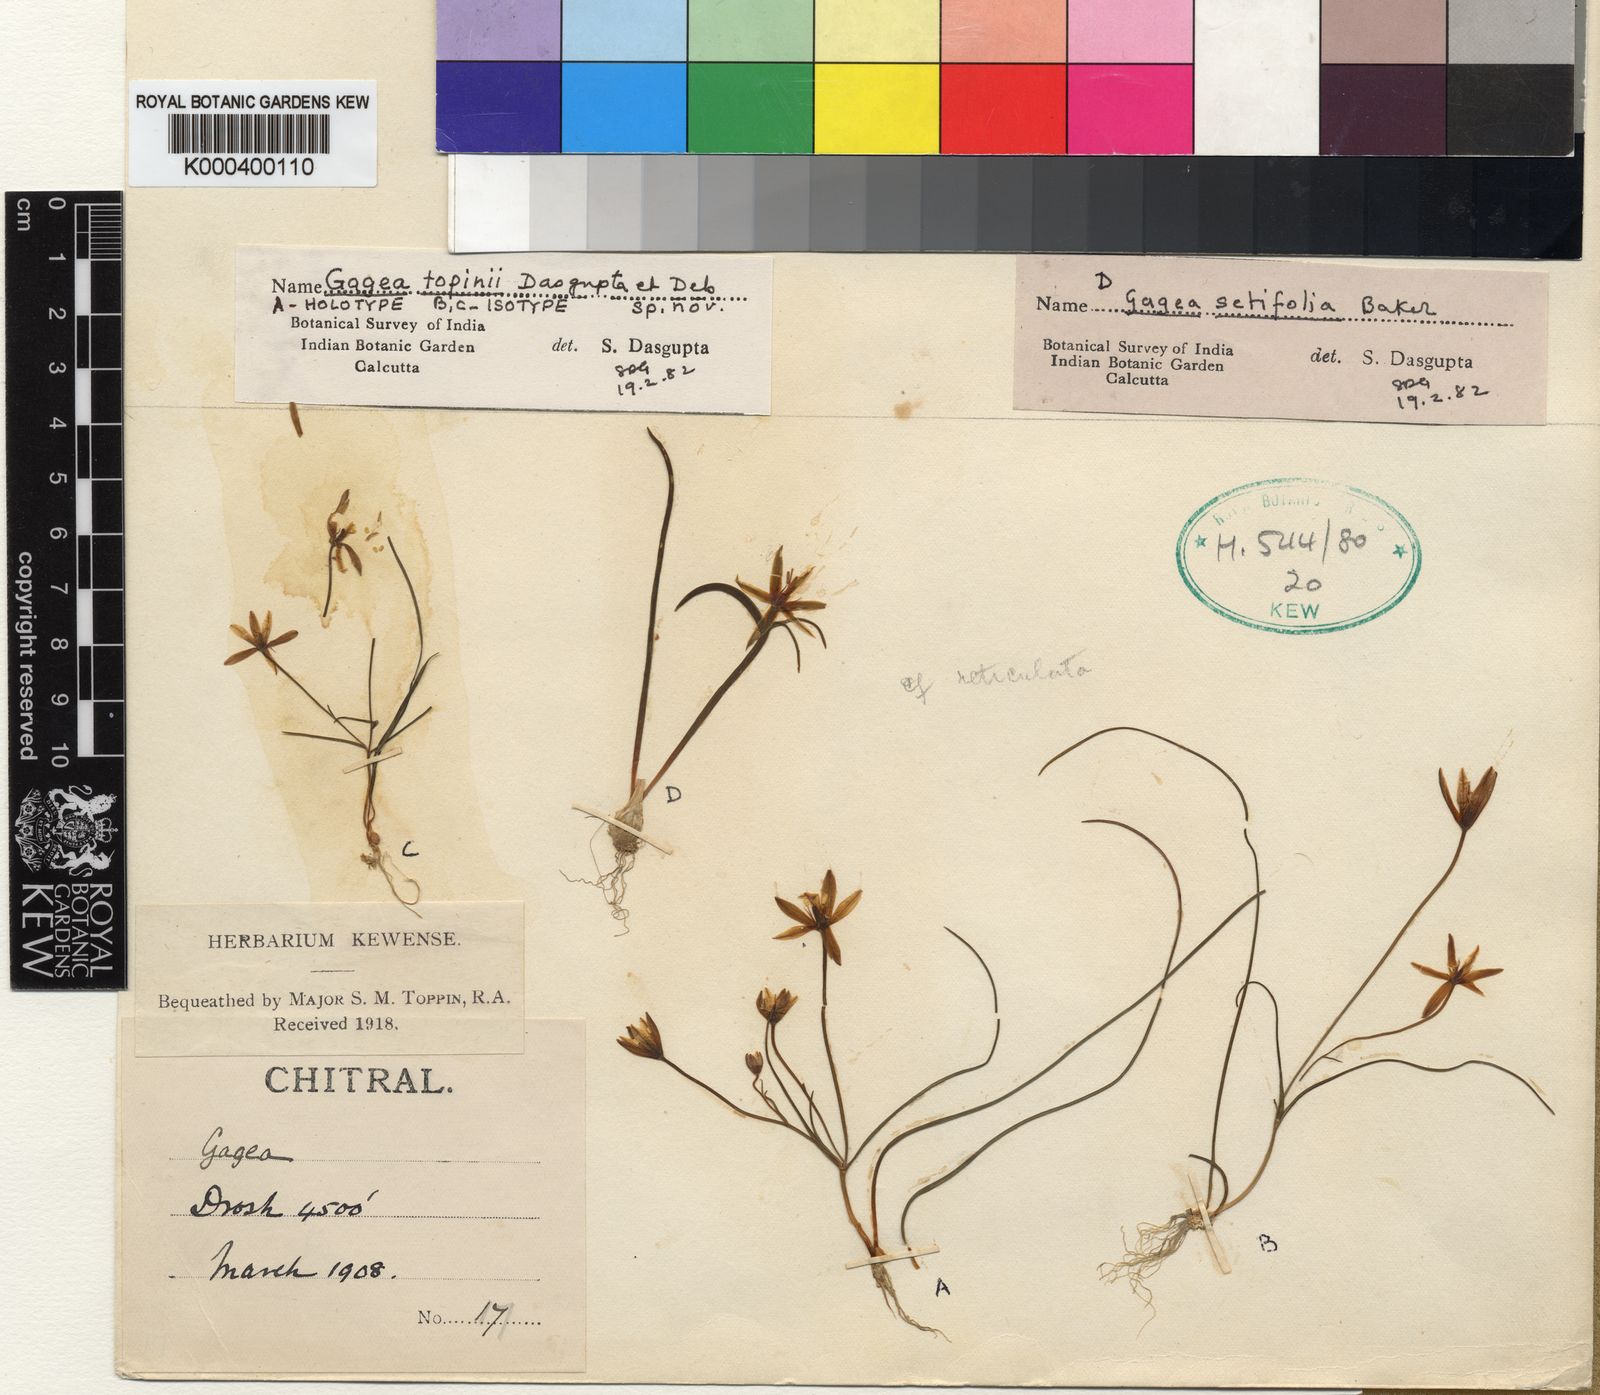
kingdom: Plantae
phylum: Tracheophyta
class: Liliopsida
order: Liliales
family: Liliaceae
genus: Gagea
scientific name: Gagea toppinii
